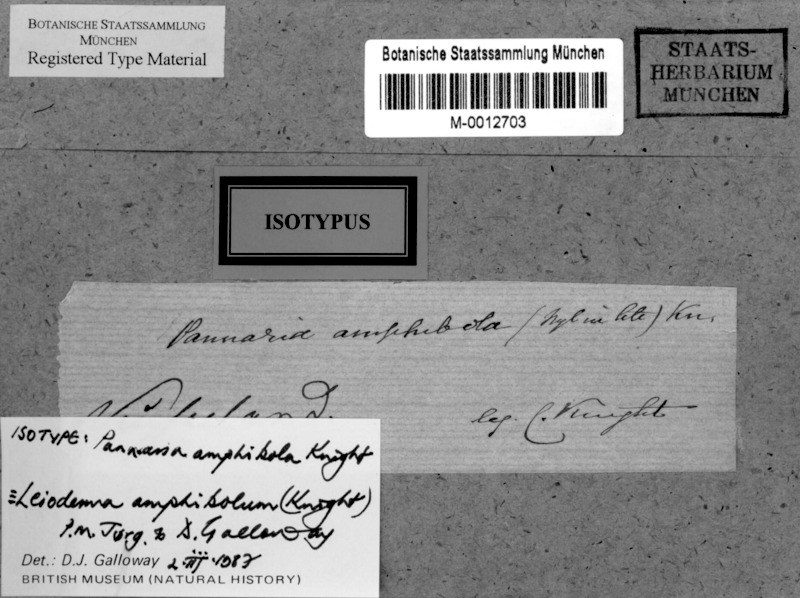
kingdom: Fungi
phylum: Ascomycota
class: Lecanoromycetes
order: Peltigerales
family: Pannariaceae
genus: Leioderma
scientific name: Leioderma amphibolum
